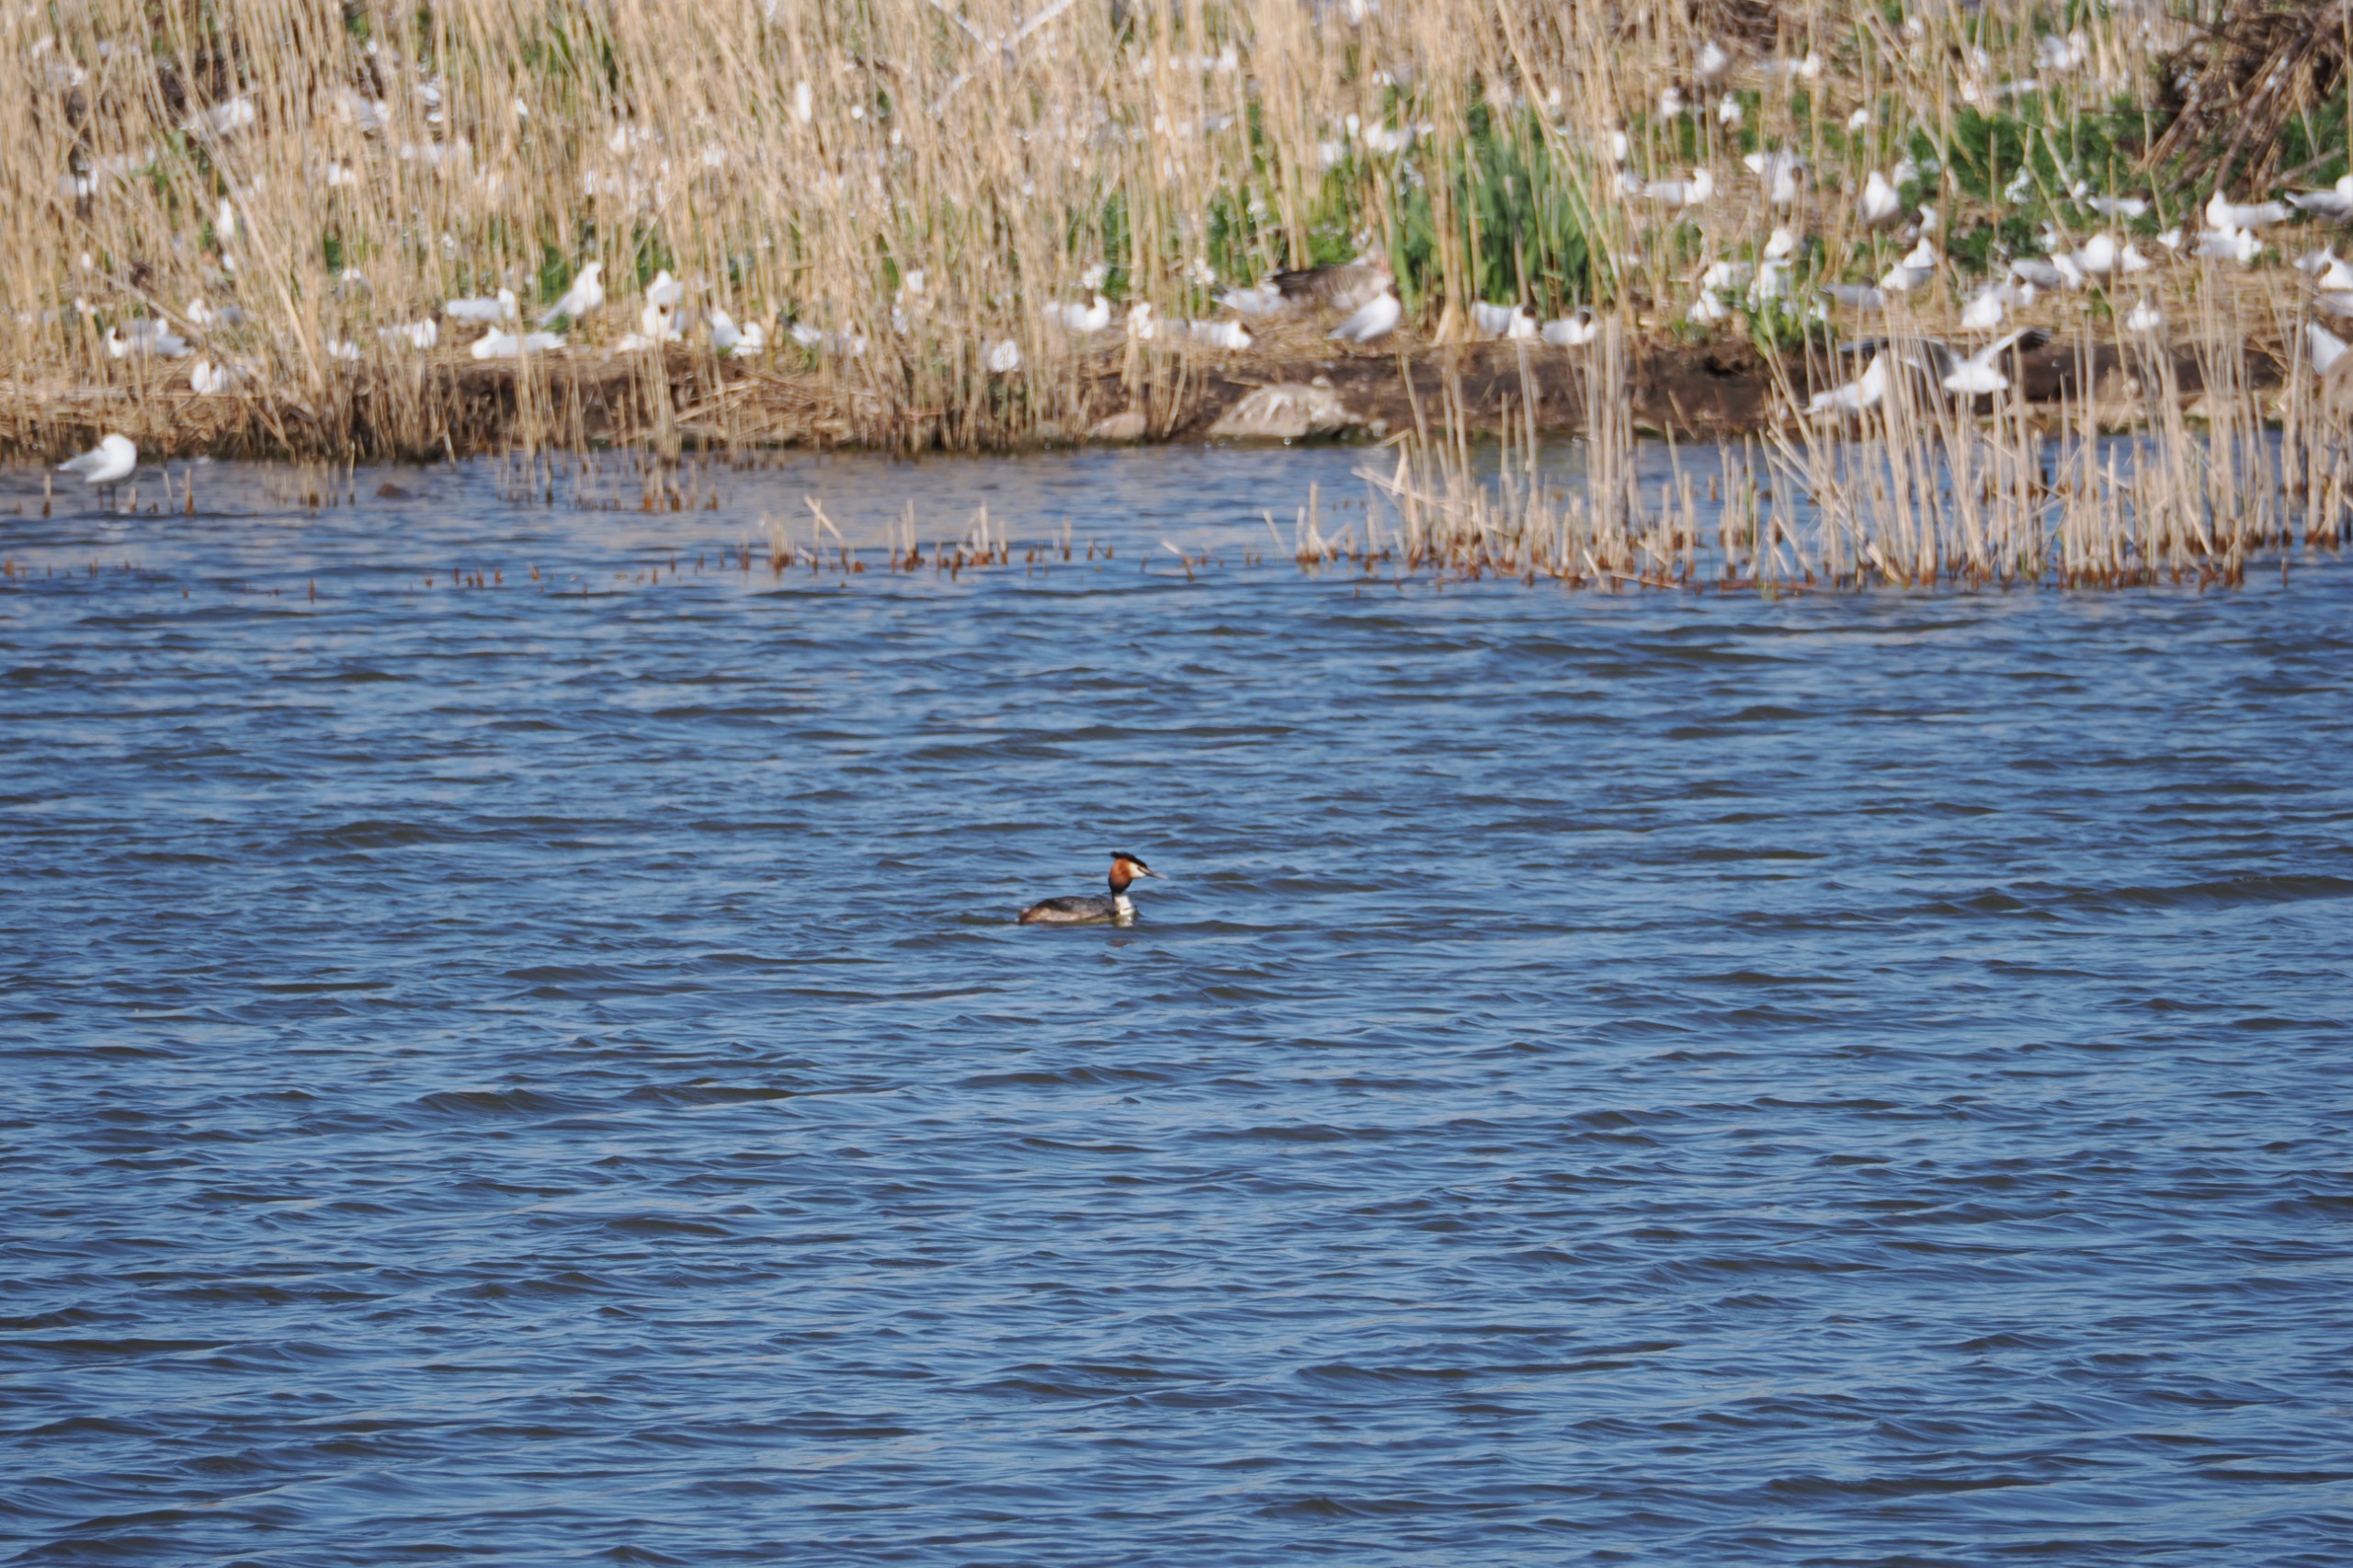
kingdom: Animalia
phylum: Chordata
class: Aves
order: Podicipediformes
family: Podicipedidae
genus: Podiceps
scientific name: Podiceps cristatus
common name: Toppet lappedykker
